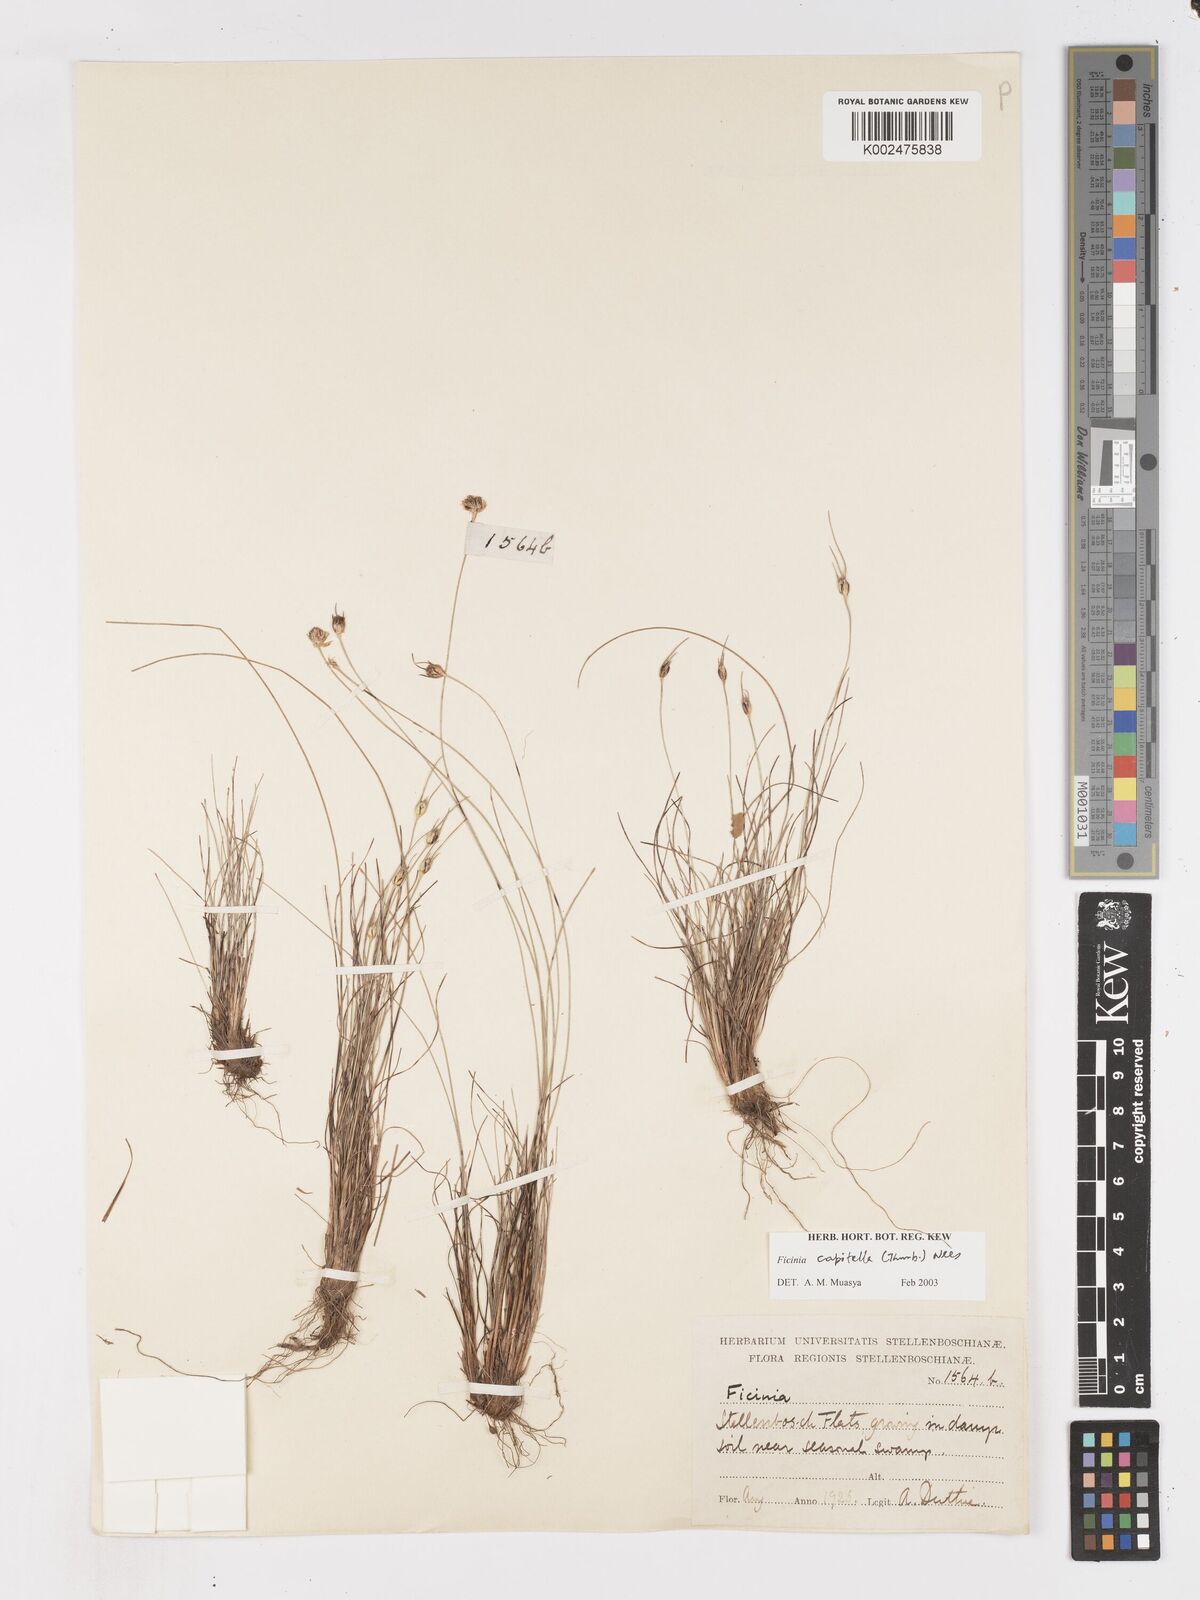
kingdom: Plantae
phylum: Tracheophyta
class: Liliopsida
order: Poales
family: Cyperaceae
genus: Ficinia
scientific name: Ficinia capitella
